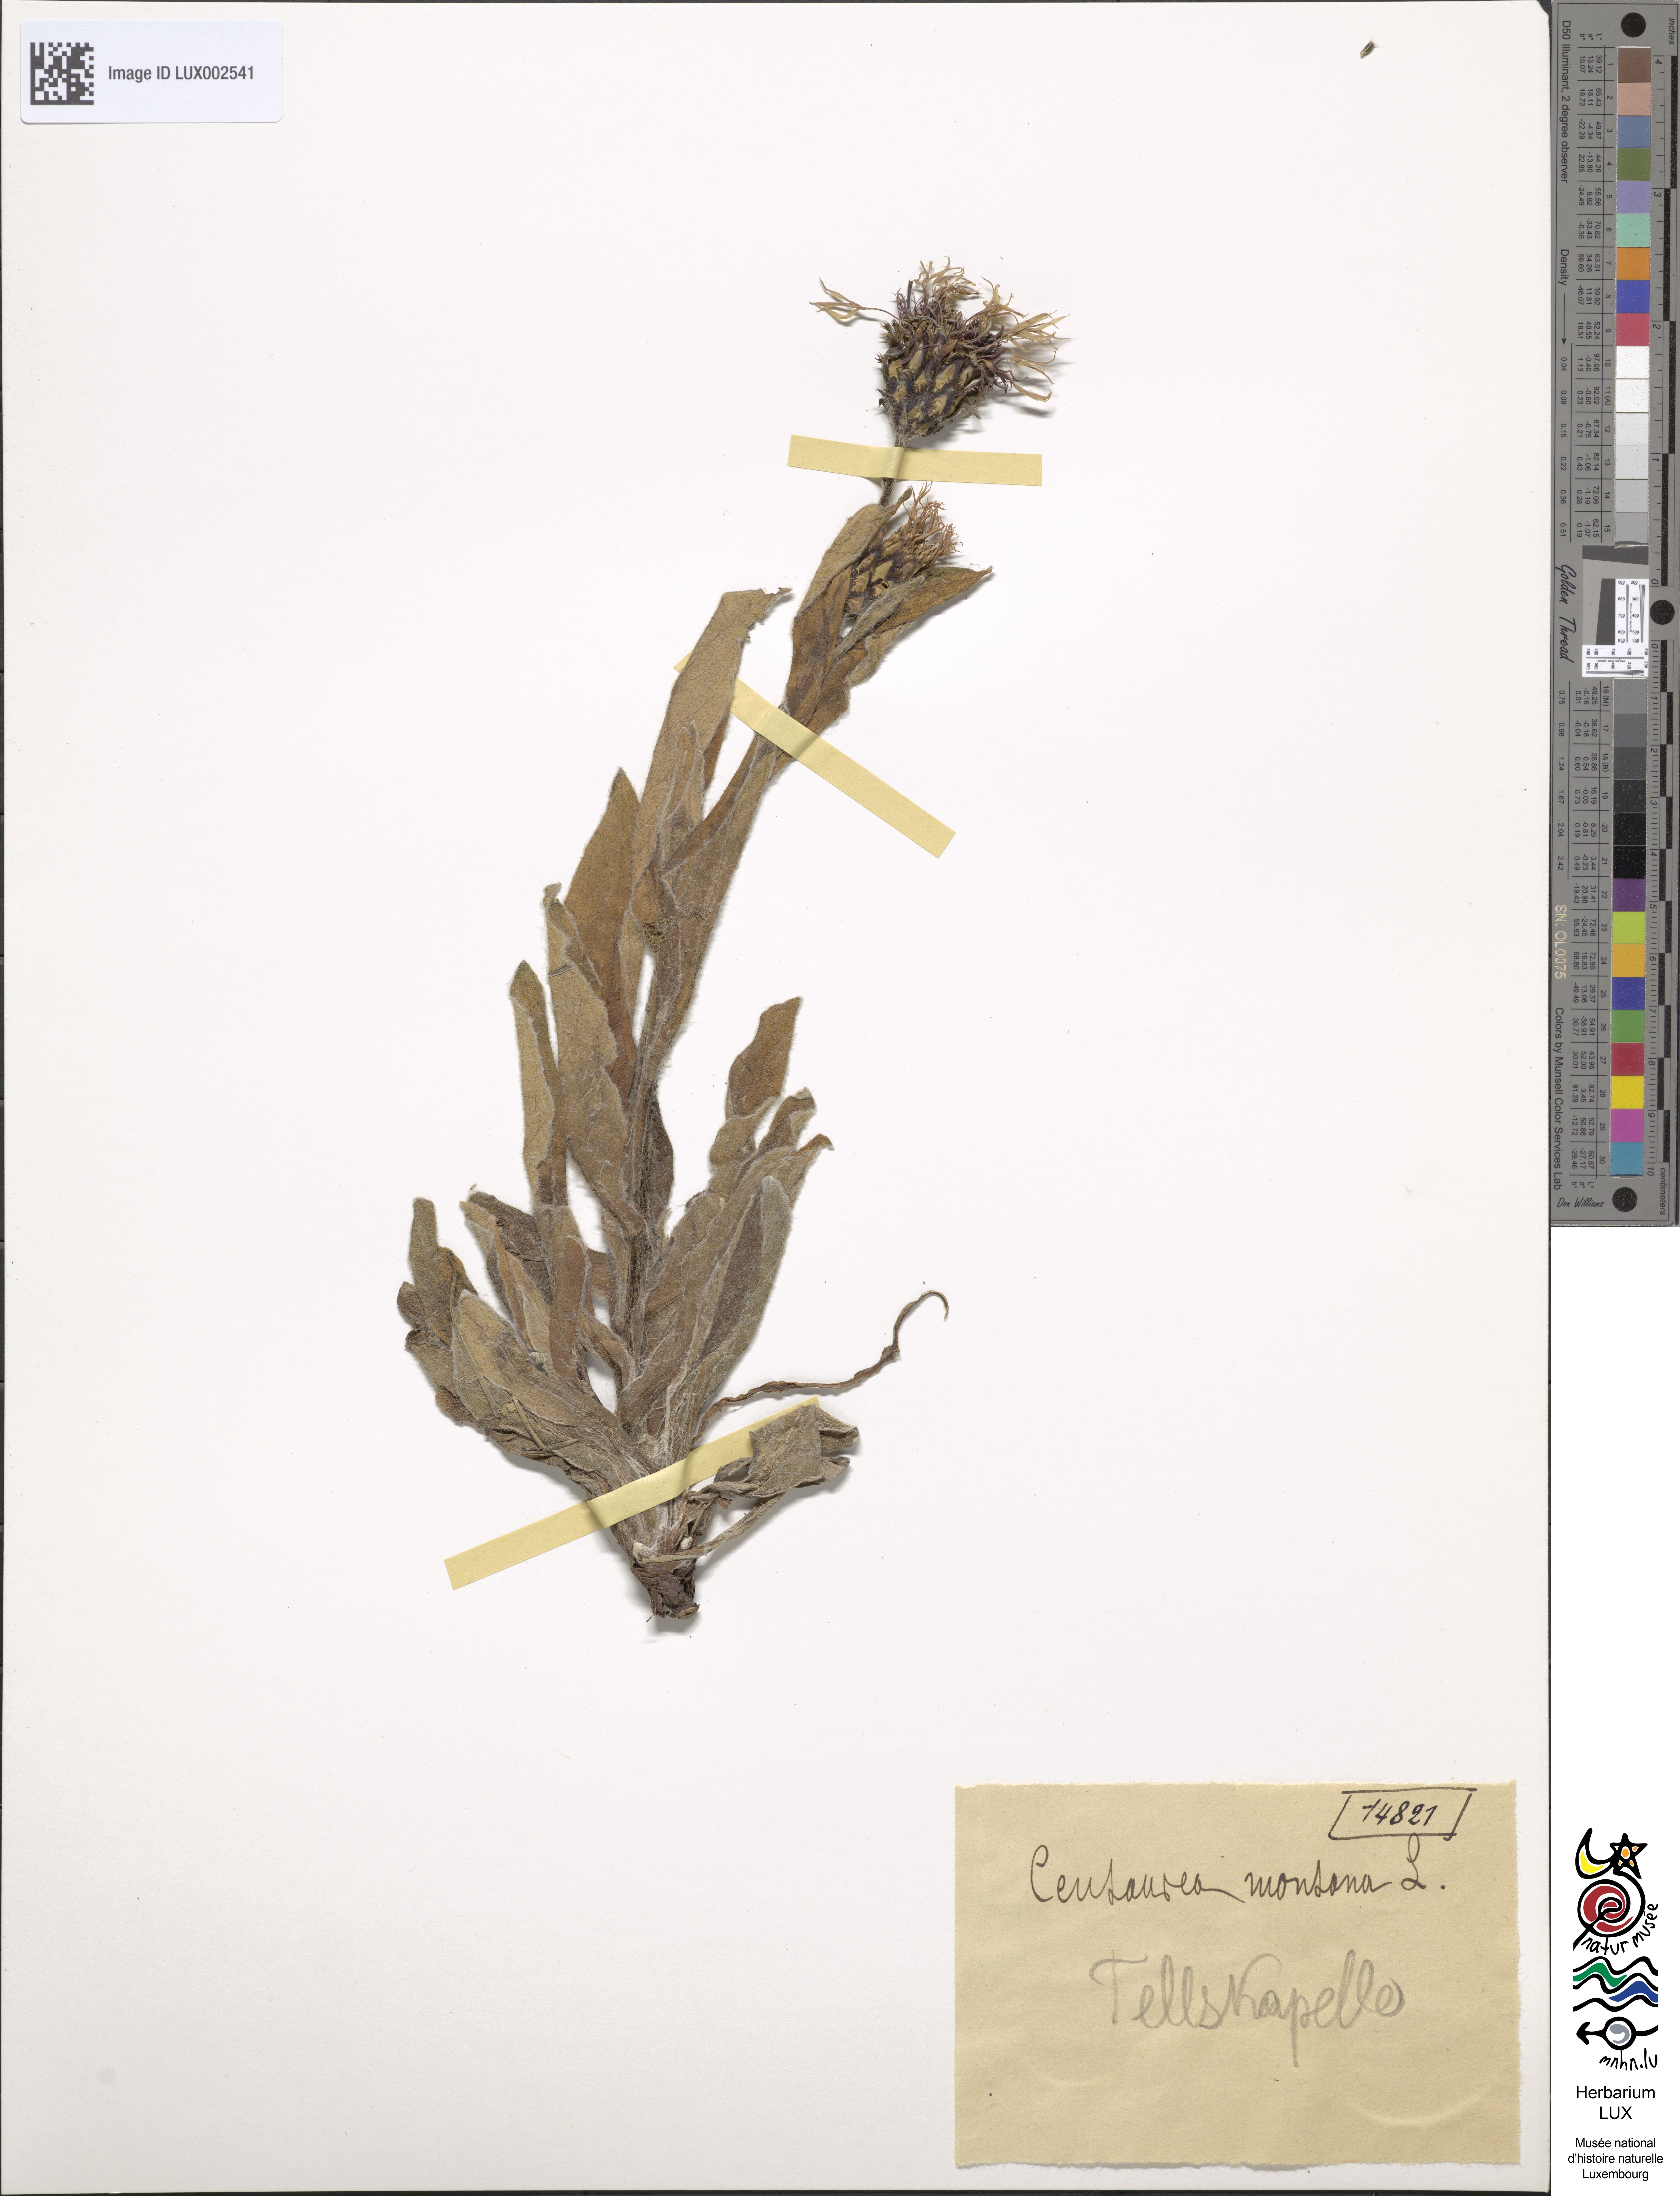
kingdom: Plantae
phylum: Tracheophyta
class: Magnoliopsida
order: Asterales
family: Asteraceae
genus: Centaurea
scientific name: Centaurea montana
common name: Perennial cornflower
